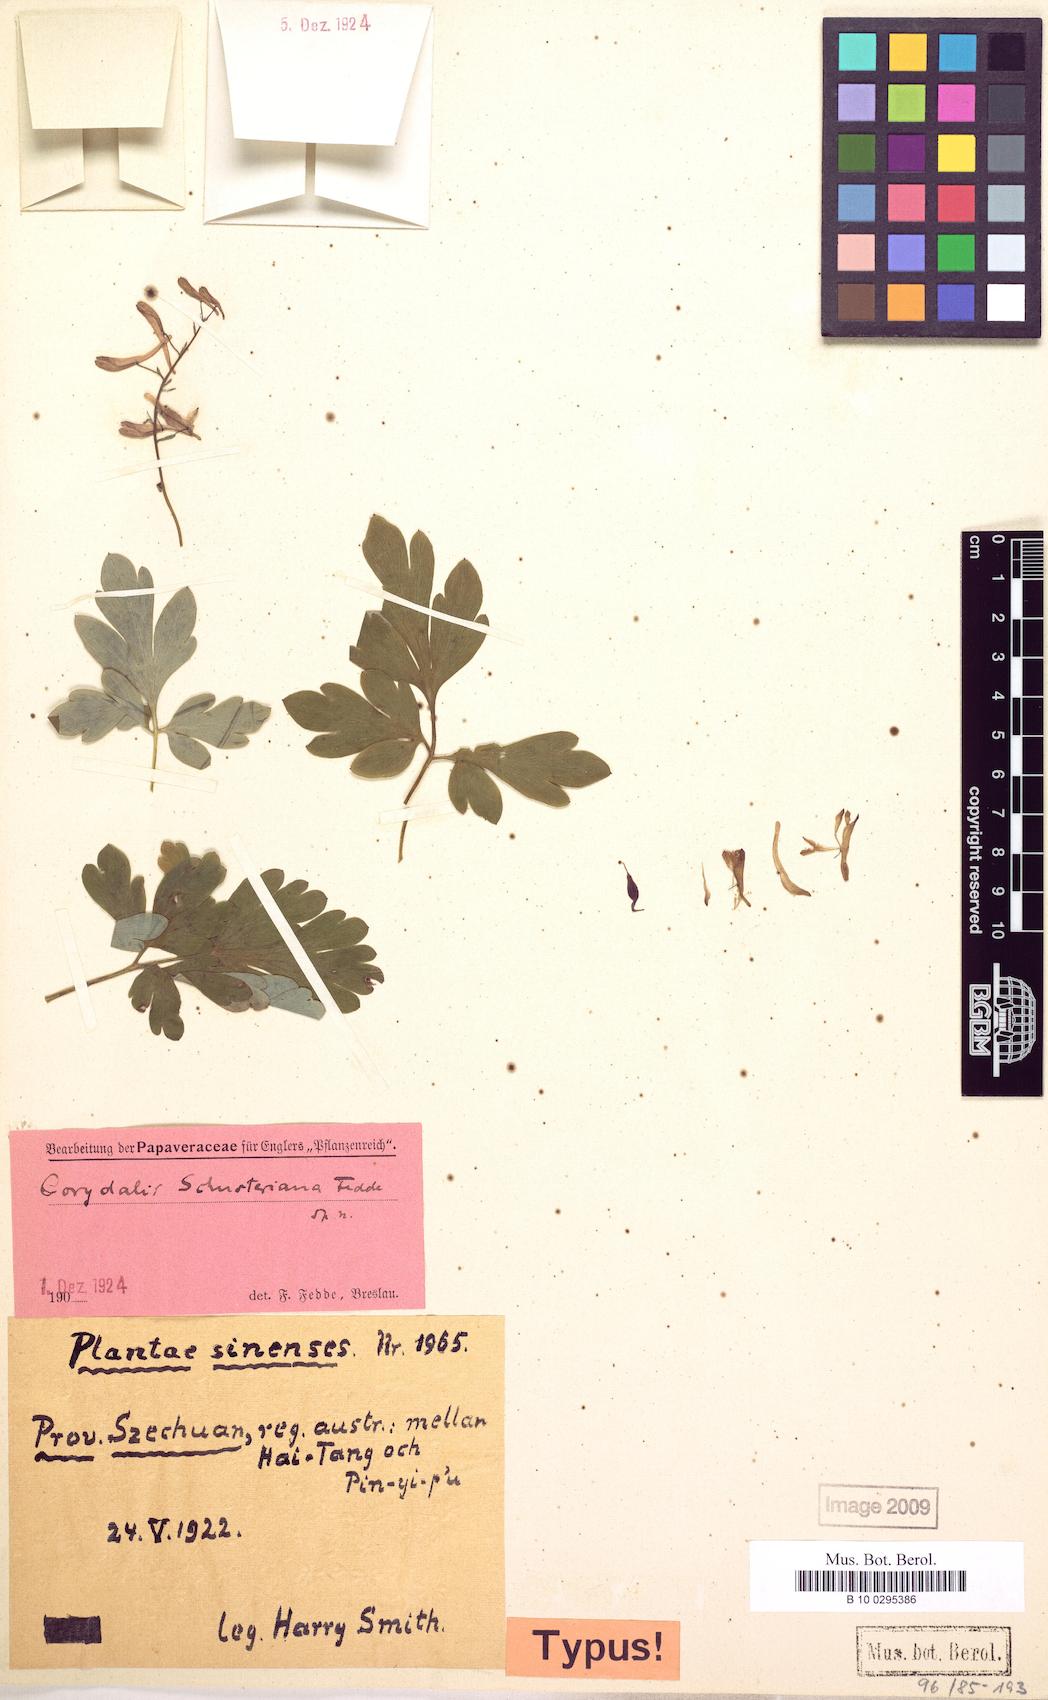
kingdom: Plantae
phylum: Tracheophyta
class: Magnoliopsida
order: Ranunculales
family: Papaveraceae
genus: Corydalis
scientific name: Corydalis schusteriana
